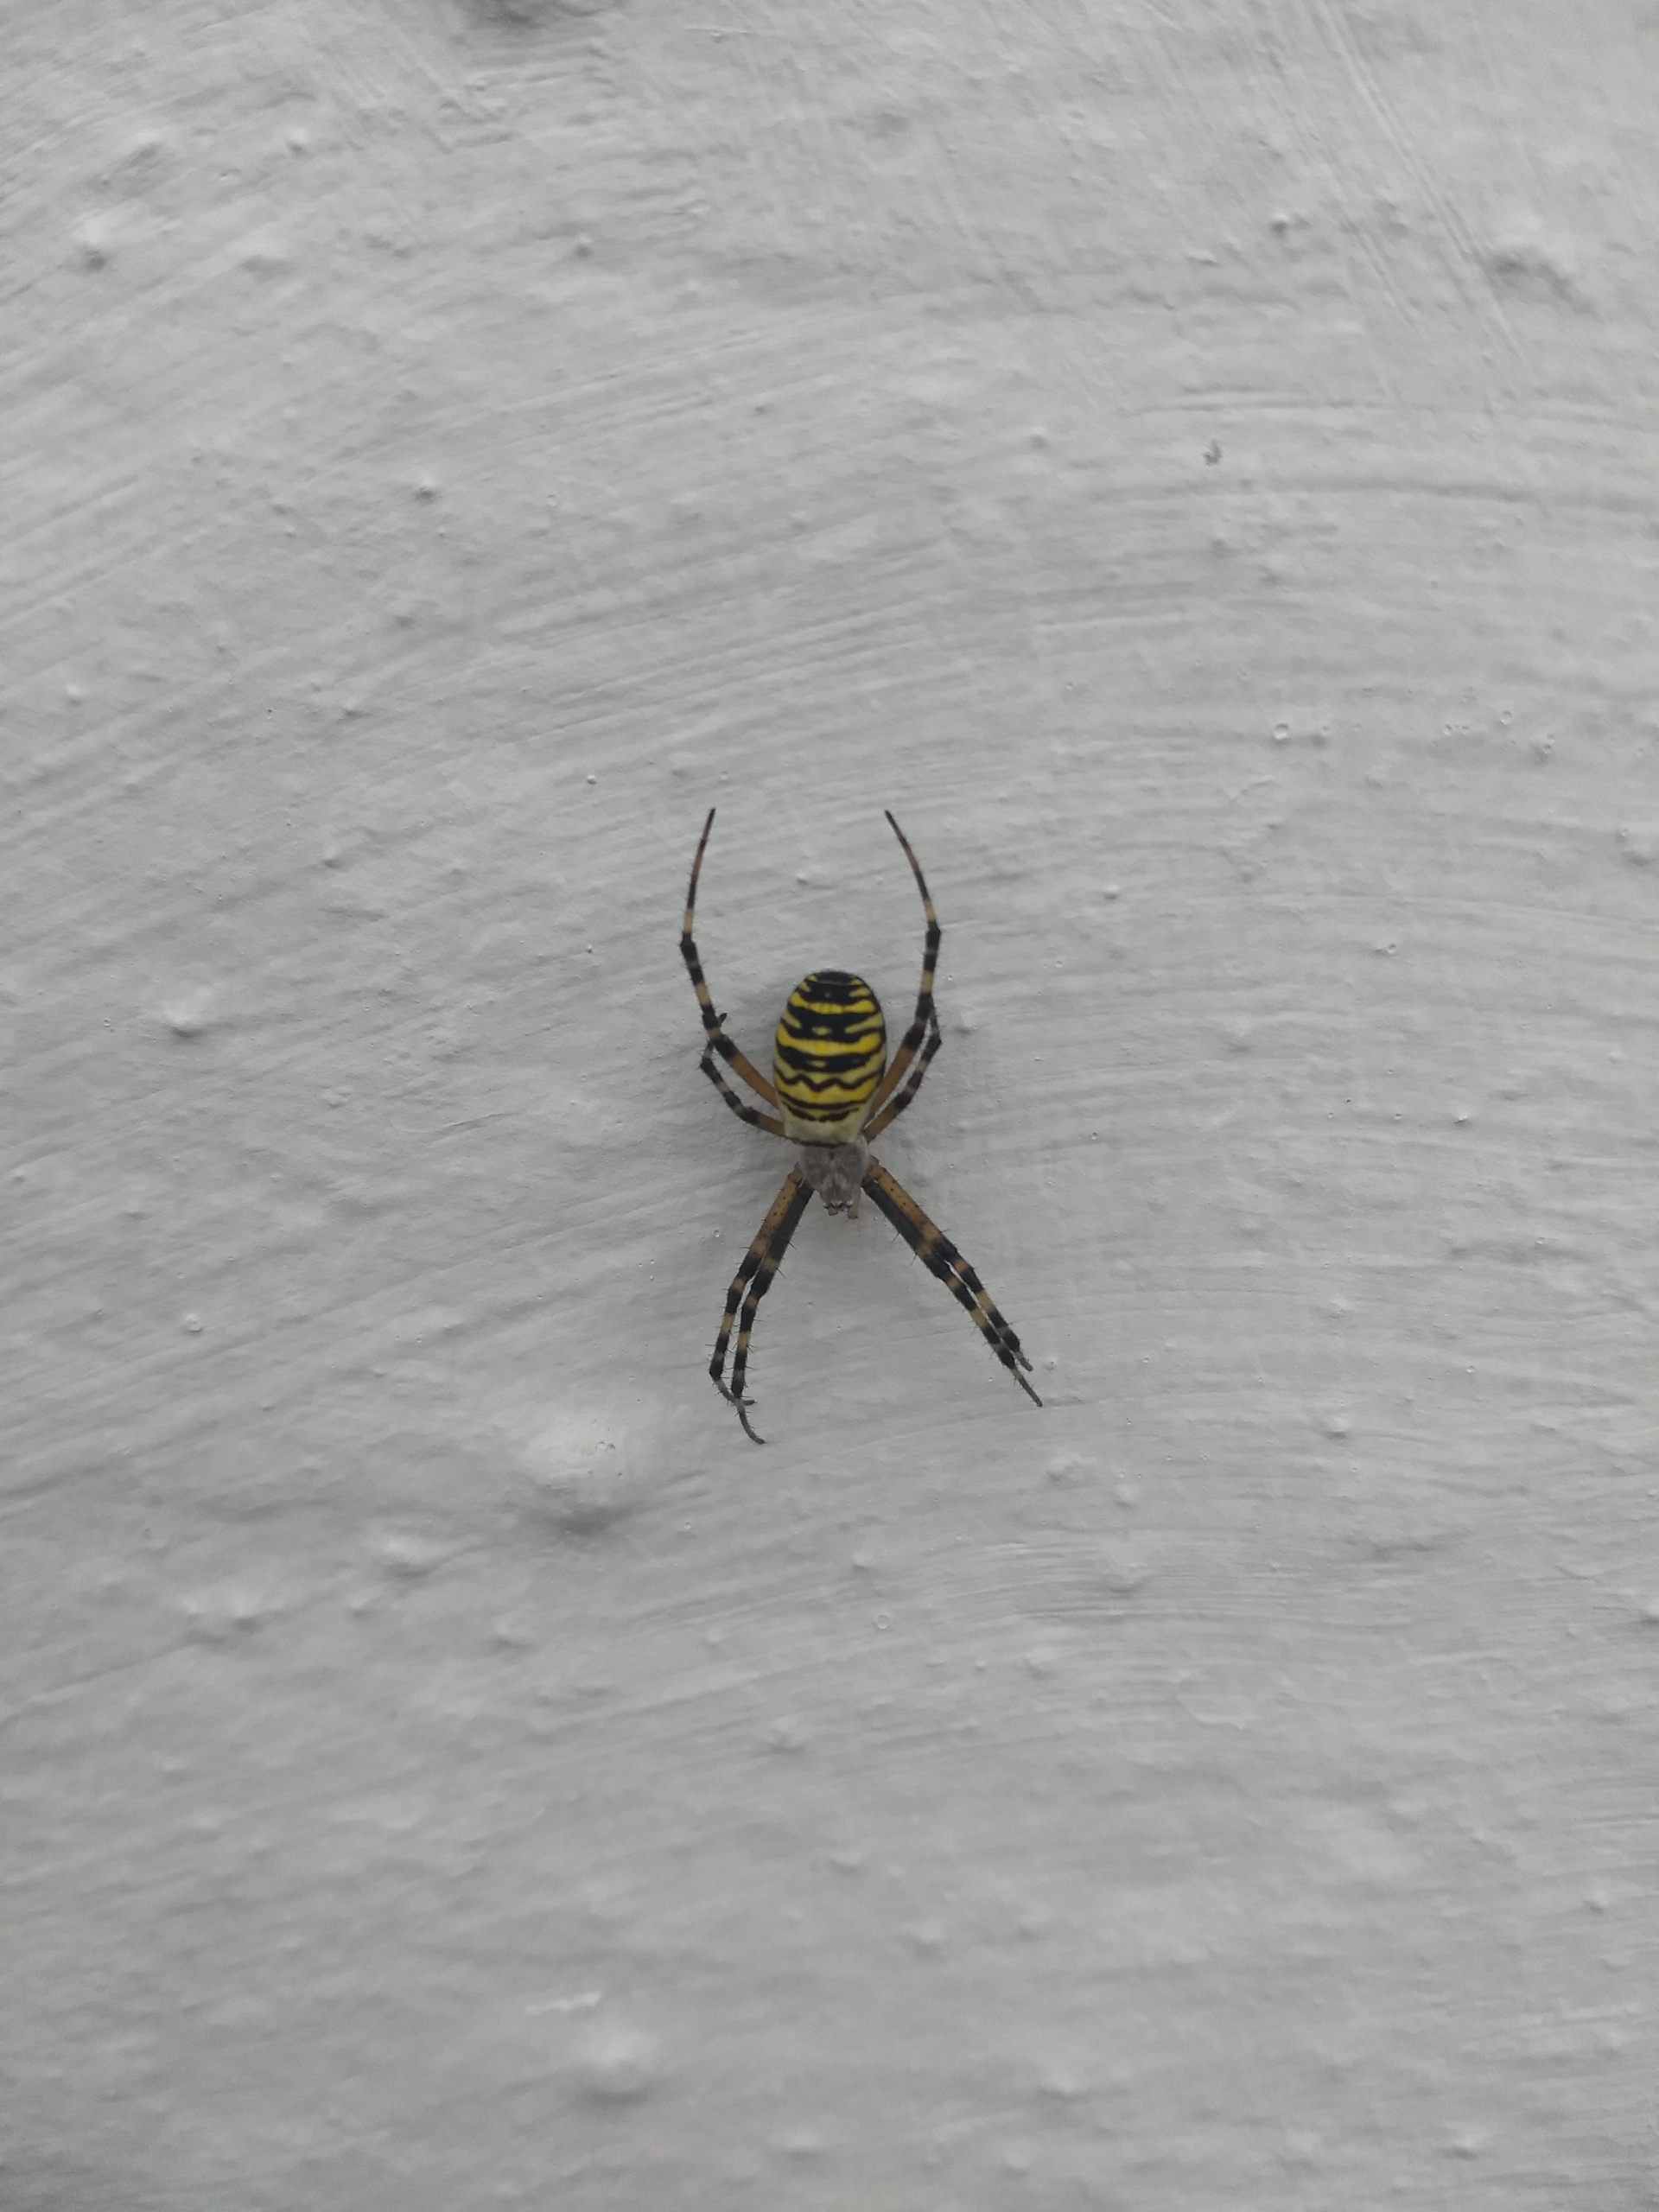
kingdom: Animalia
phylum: Arthropoda
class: Arachnida
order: Araneae
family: Araneidae
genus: Argiope
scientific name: Argiope bruennichi
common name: Hvepseedderkop
